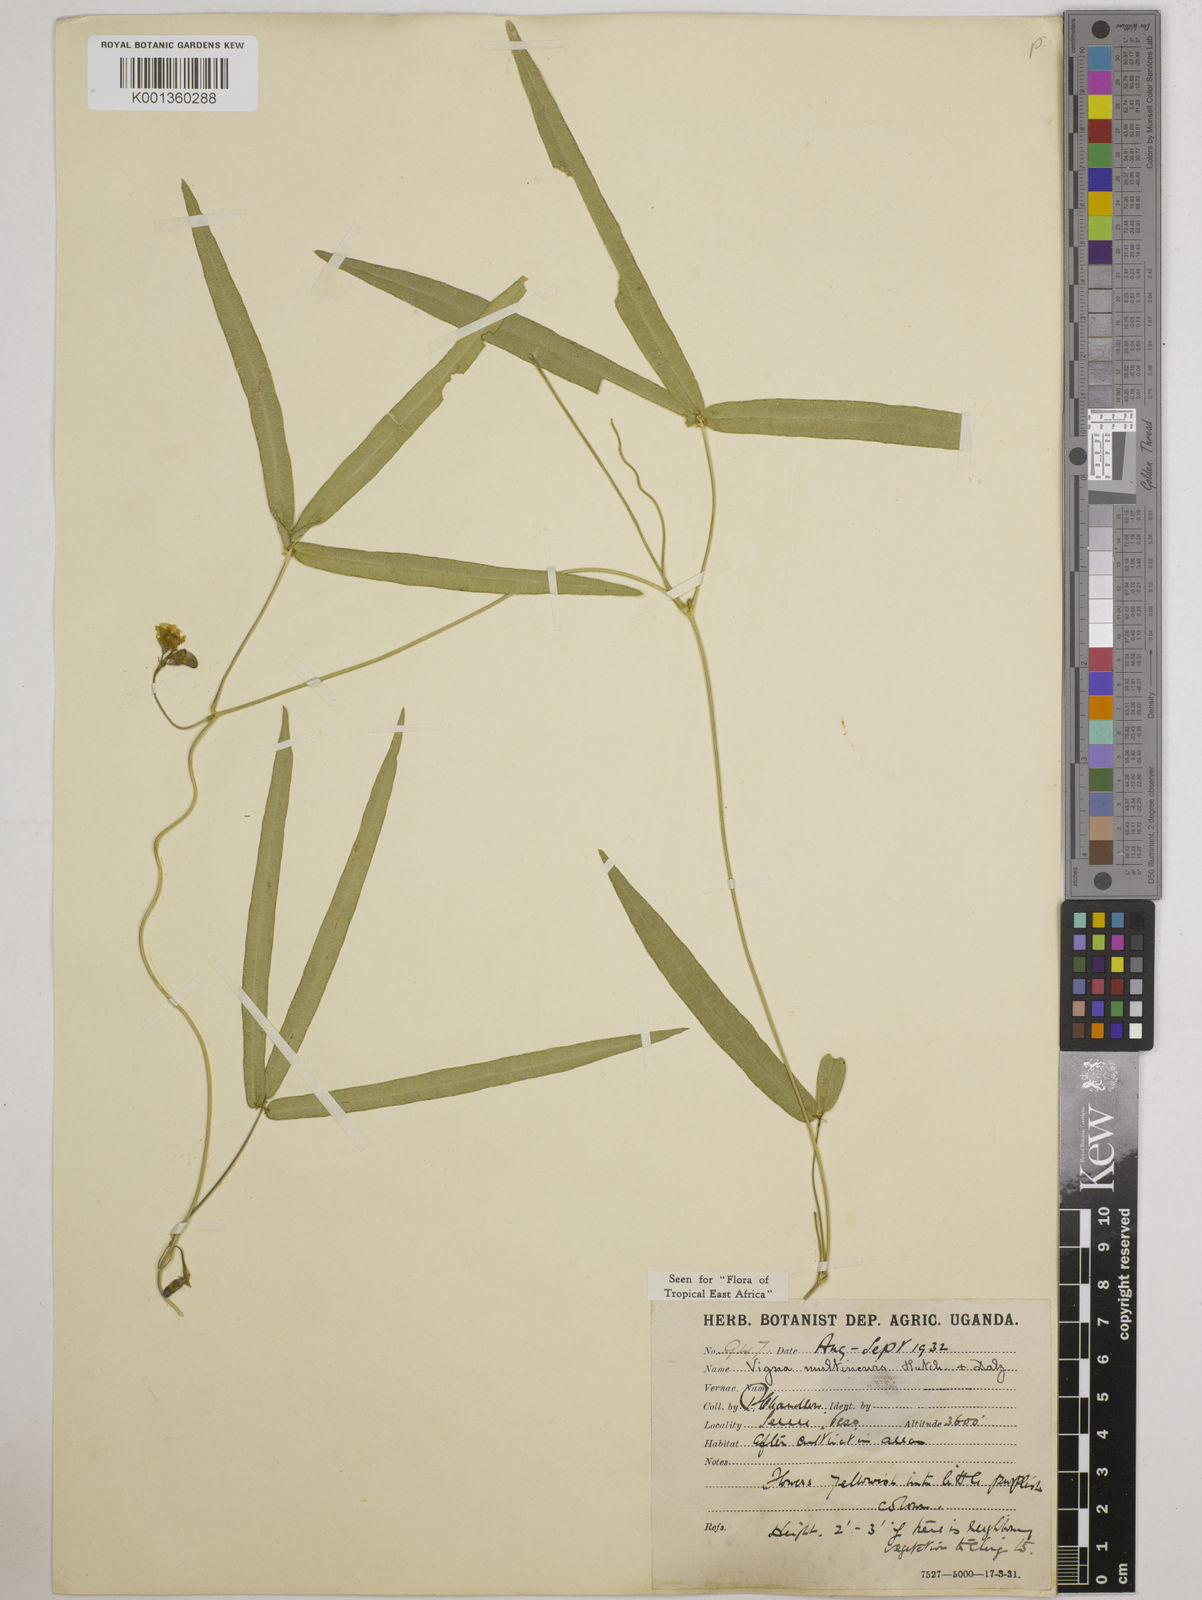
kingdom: Plantae
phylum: Tracheophyta
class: Magnoliopsida
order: Fabales
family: Fabaceae
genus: Vigna
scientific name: Vigna multinervis
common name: Fula-pulaar
